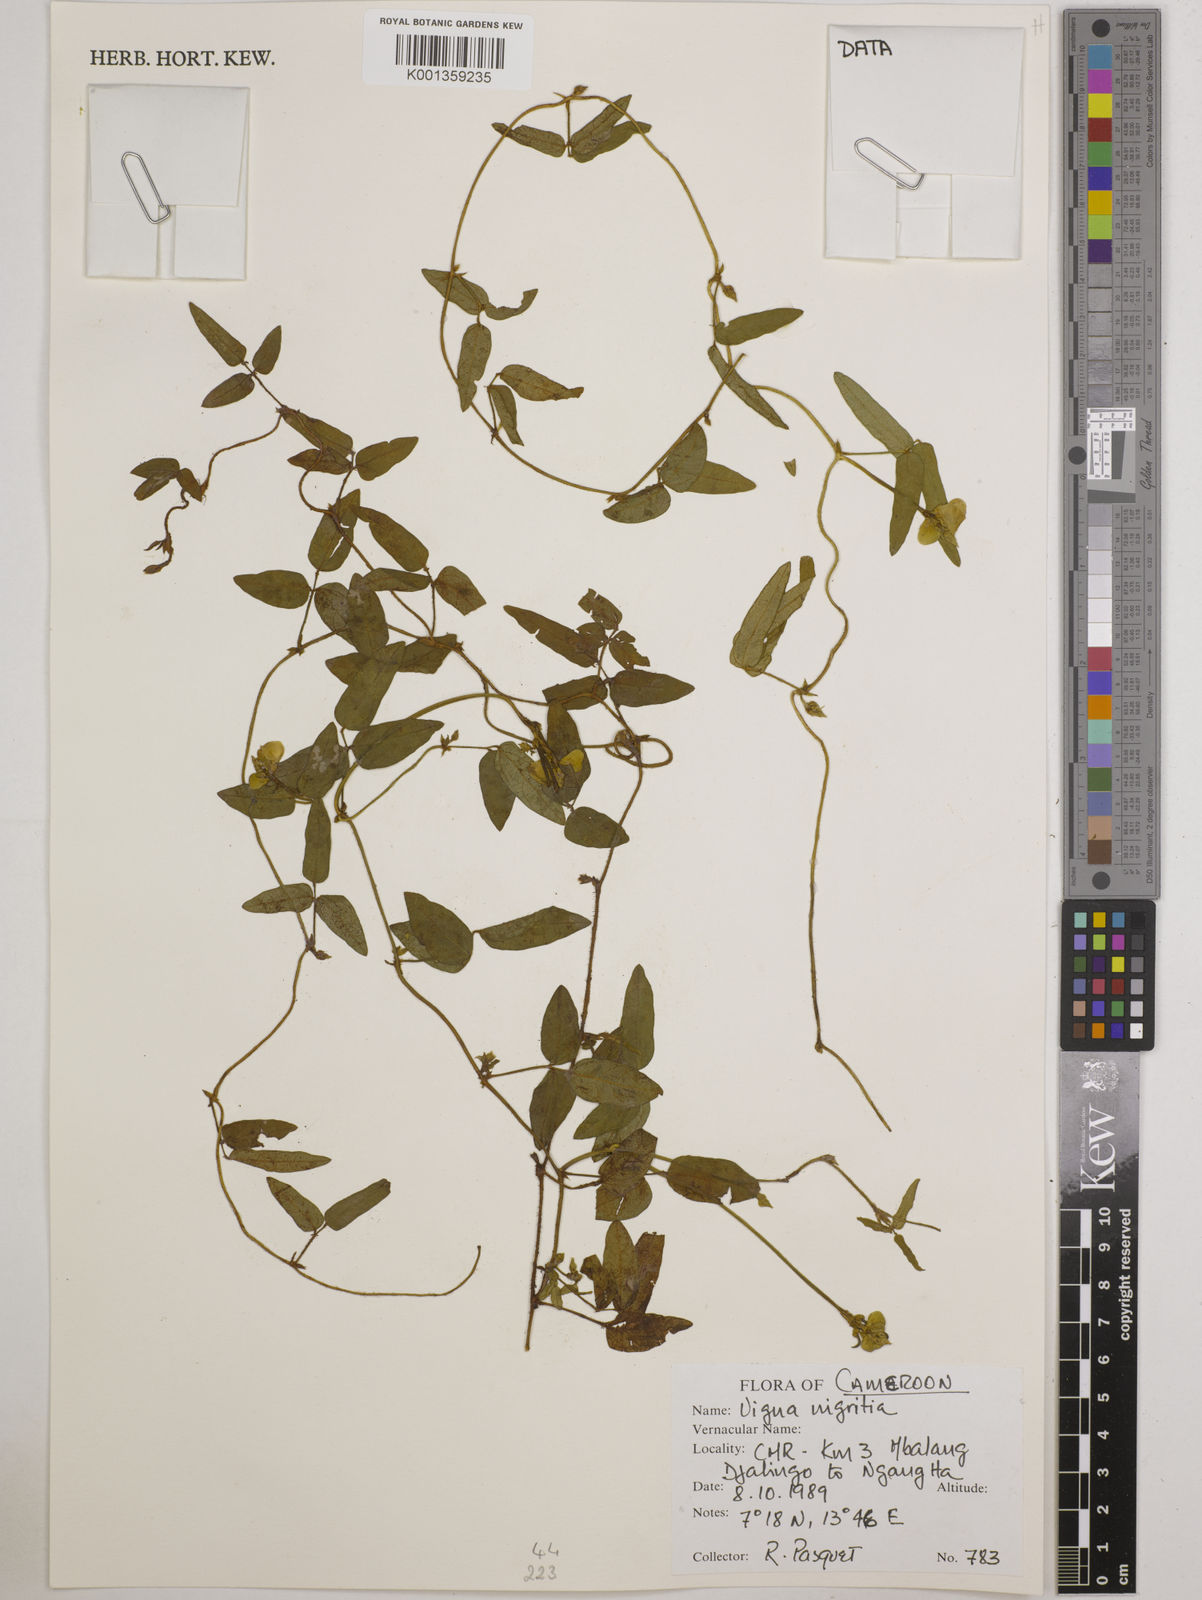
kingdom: Plantae
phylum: Tracheophyta
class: Magnoliopsida
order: Fabales
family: Fabaceae
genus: Vigna
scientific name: Vigna nigritia
